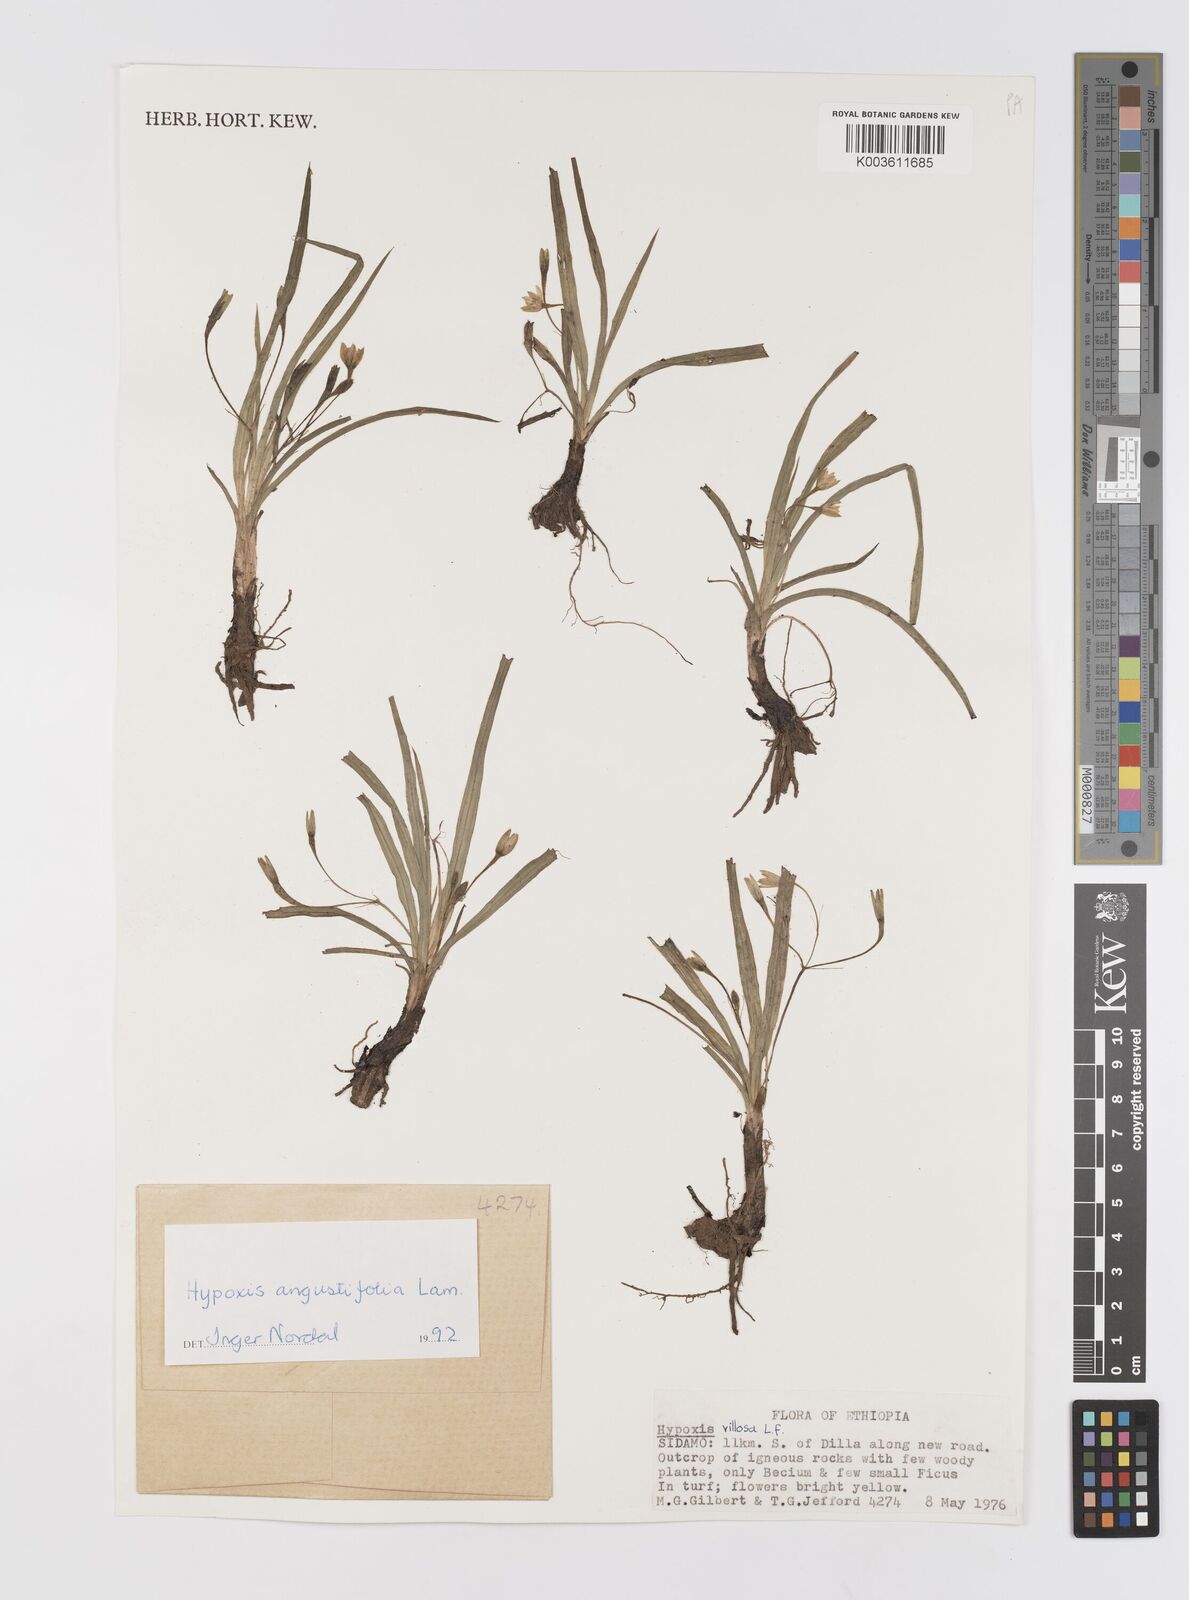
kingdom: Plantae
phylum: Tracheophyta
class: Liliopsida
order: Asparagales
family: Hypoxidaceae
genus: Hypoxis
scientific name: Hypoxis angustifolia
